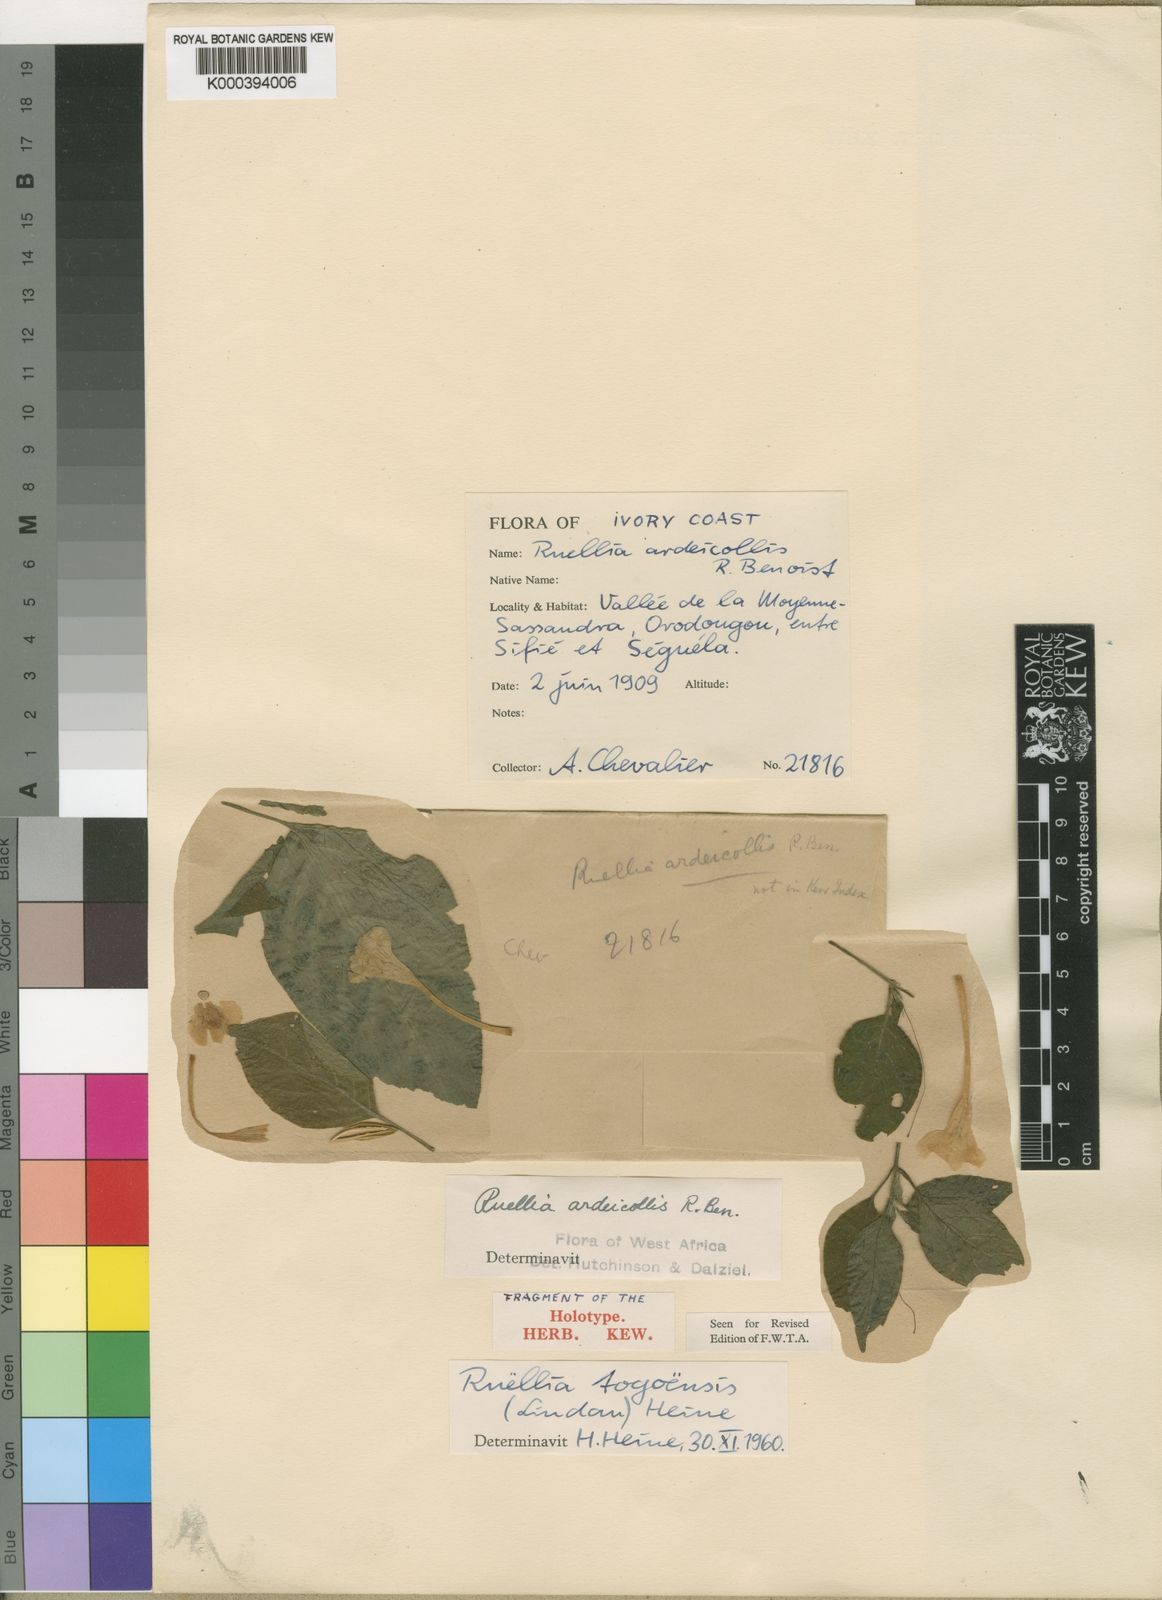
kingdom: Plantae
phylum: Tracheophyta
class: Magnoliopsida
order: Lamiales
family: Acanthaceae
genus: Ruellia
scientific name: Ruellia togoensis
